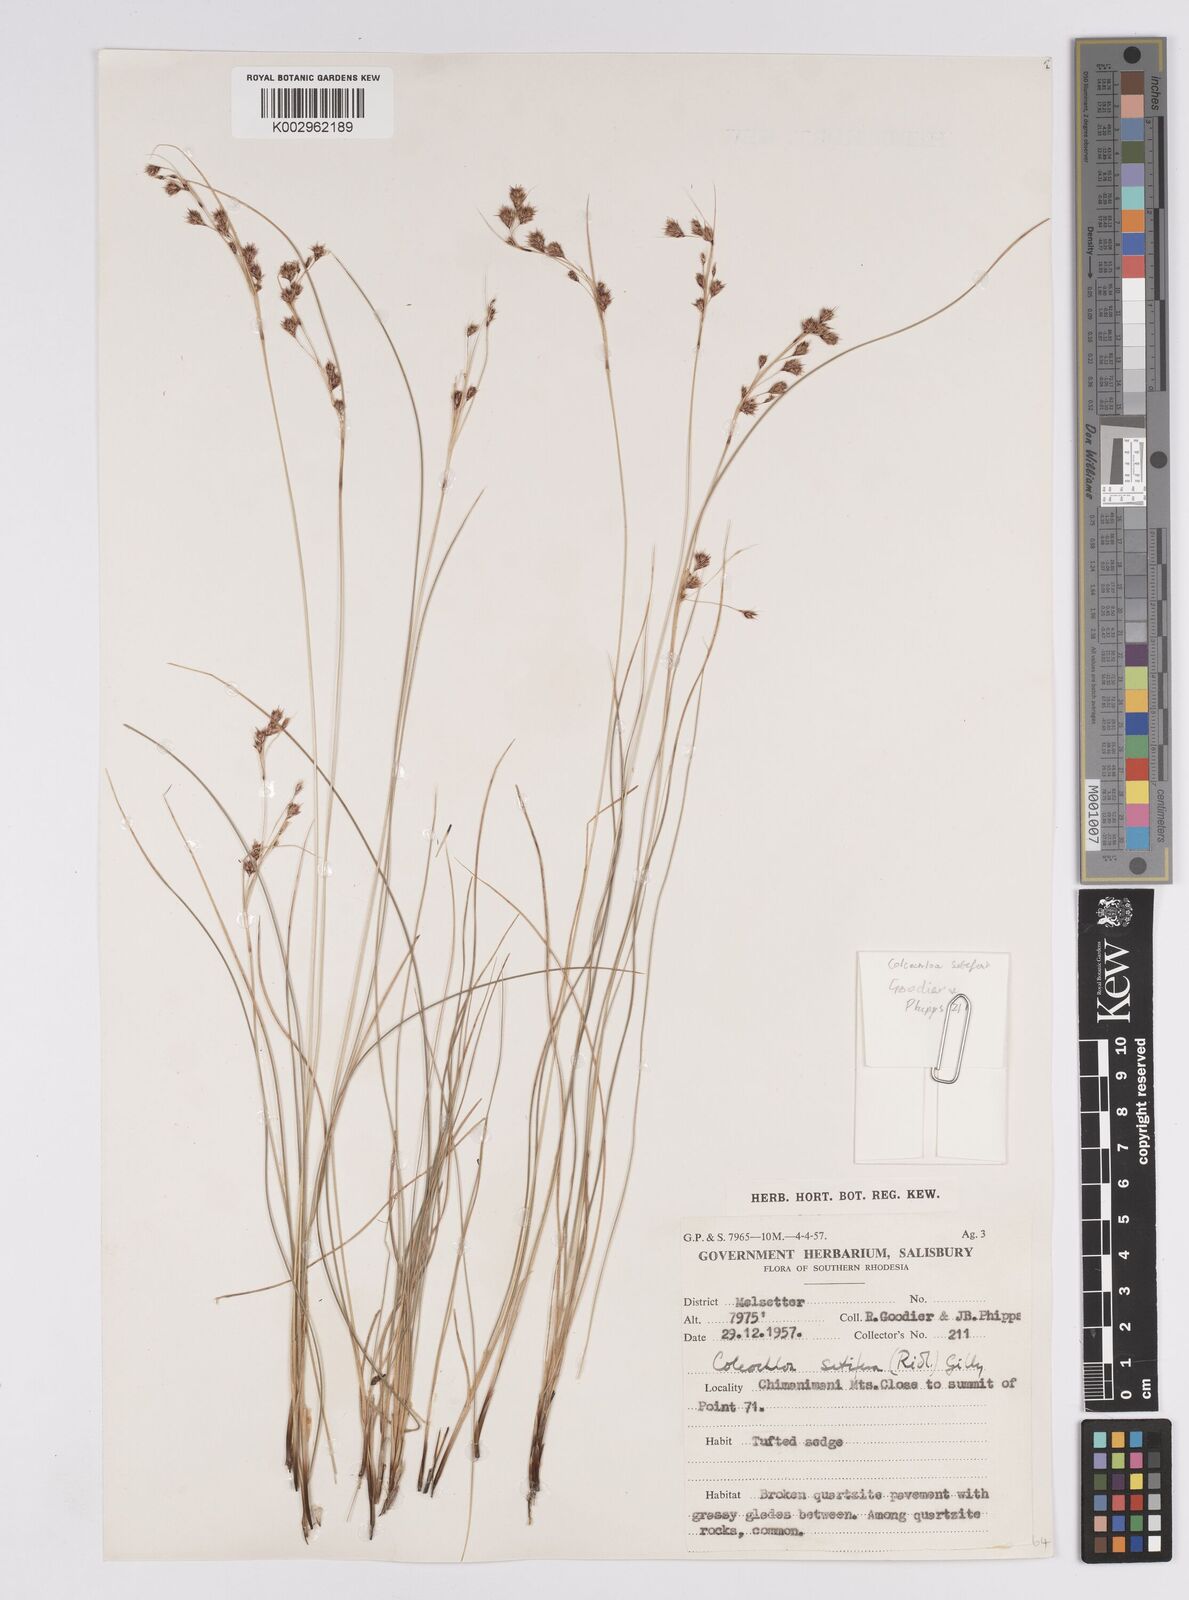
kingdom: Plantae
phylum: Tracheophyta
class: Liliopsida
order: Poales
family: Cyperaceae
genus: Coleochloa
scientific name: Coleochloa setifera
